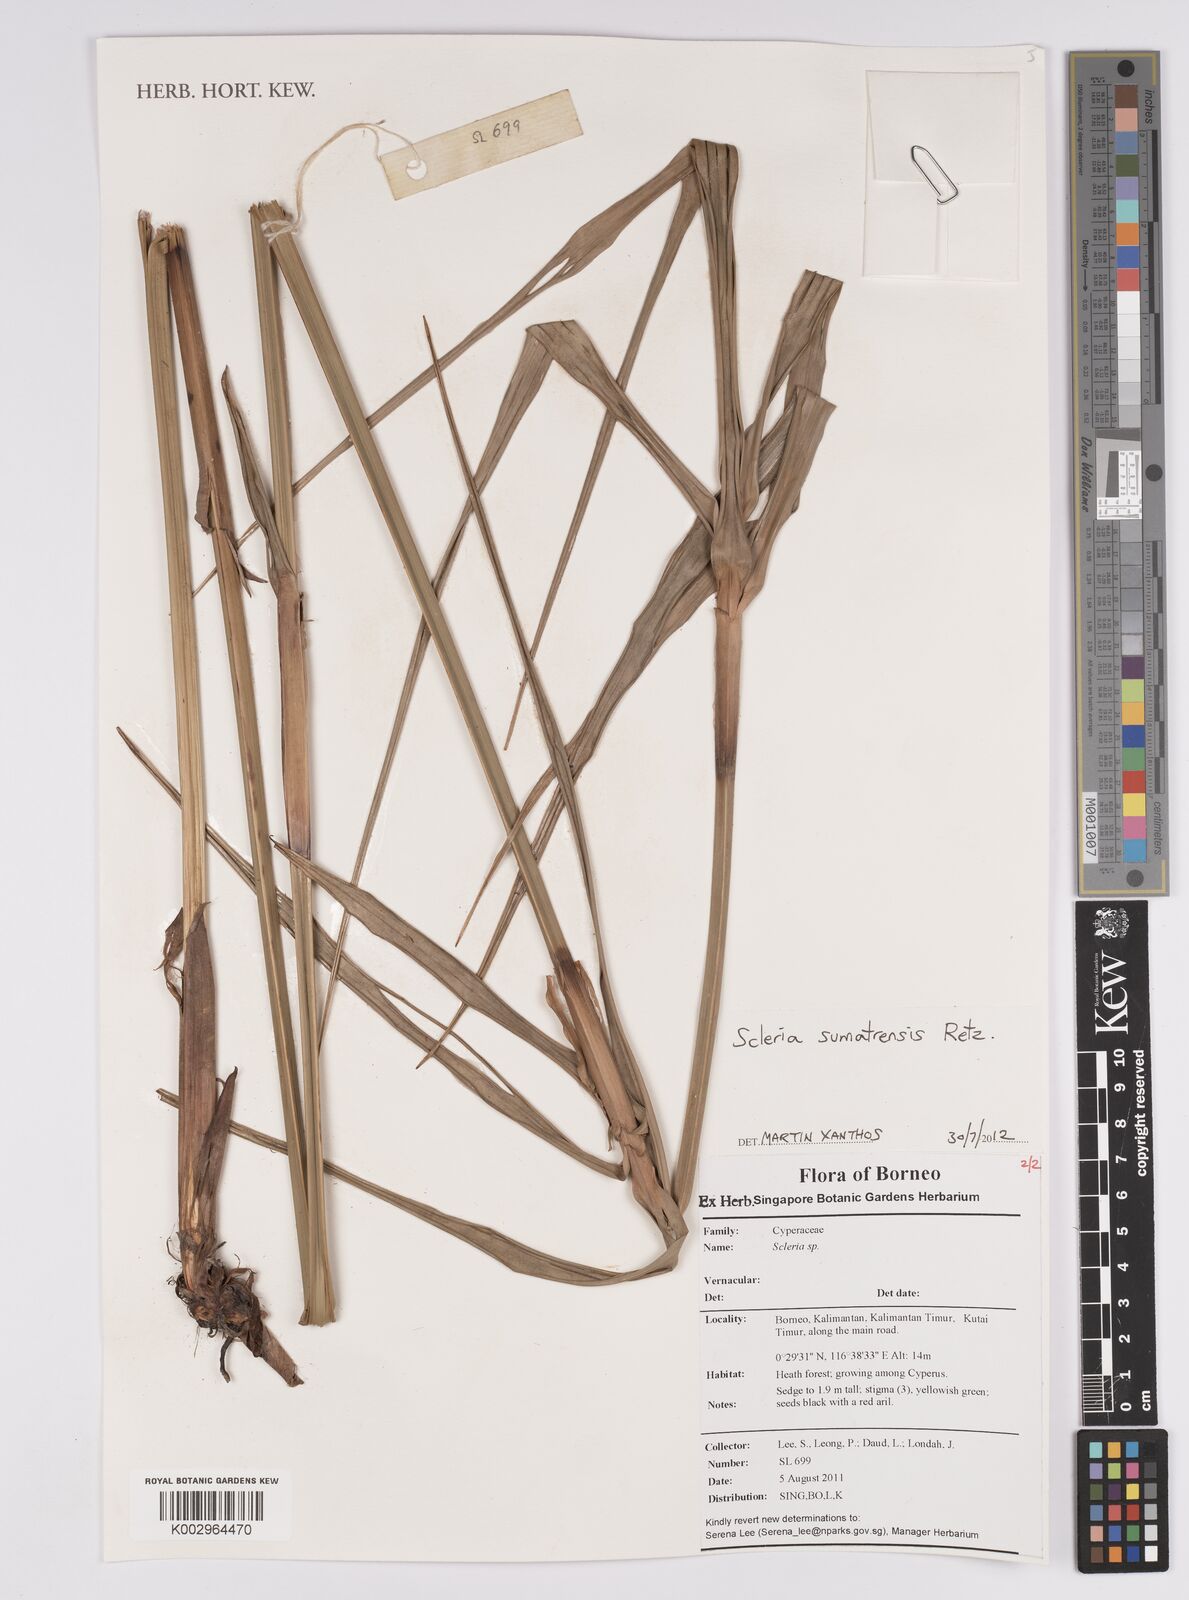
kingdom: Plantae
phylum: Tracheophyta
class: Liliopsida
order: Poales
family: Cyperaceae
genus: Scleria
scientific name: Scleria sumatrensis
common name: Sumatran scleria
